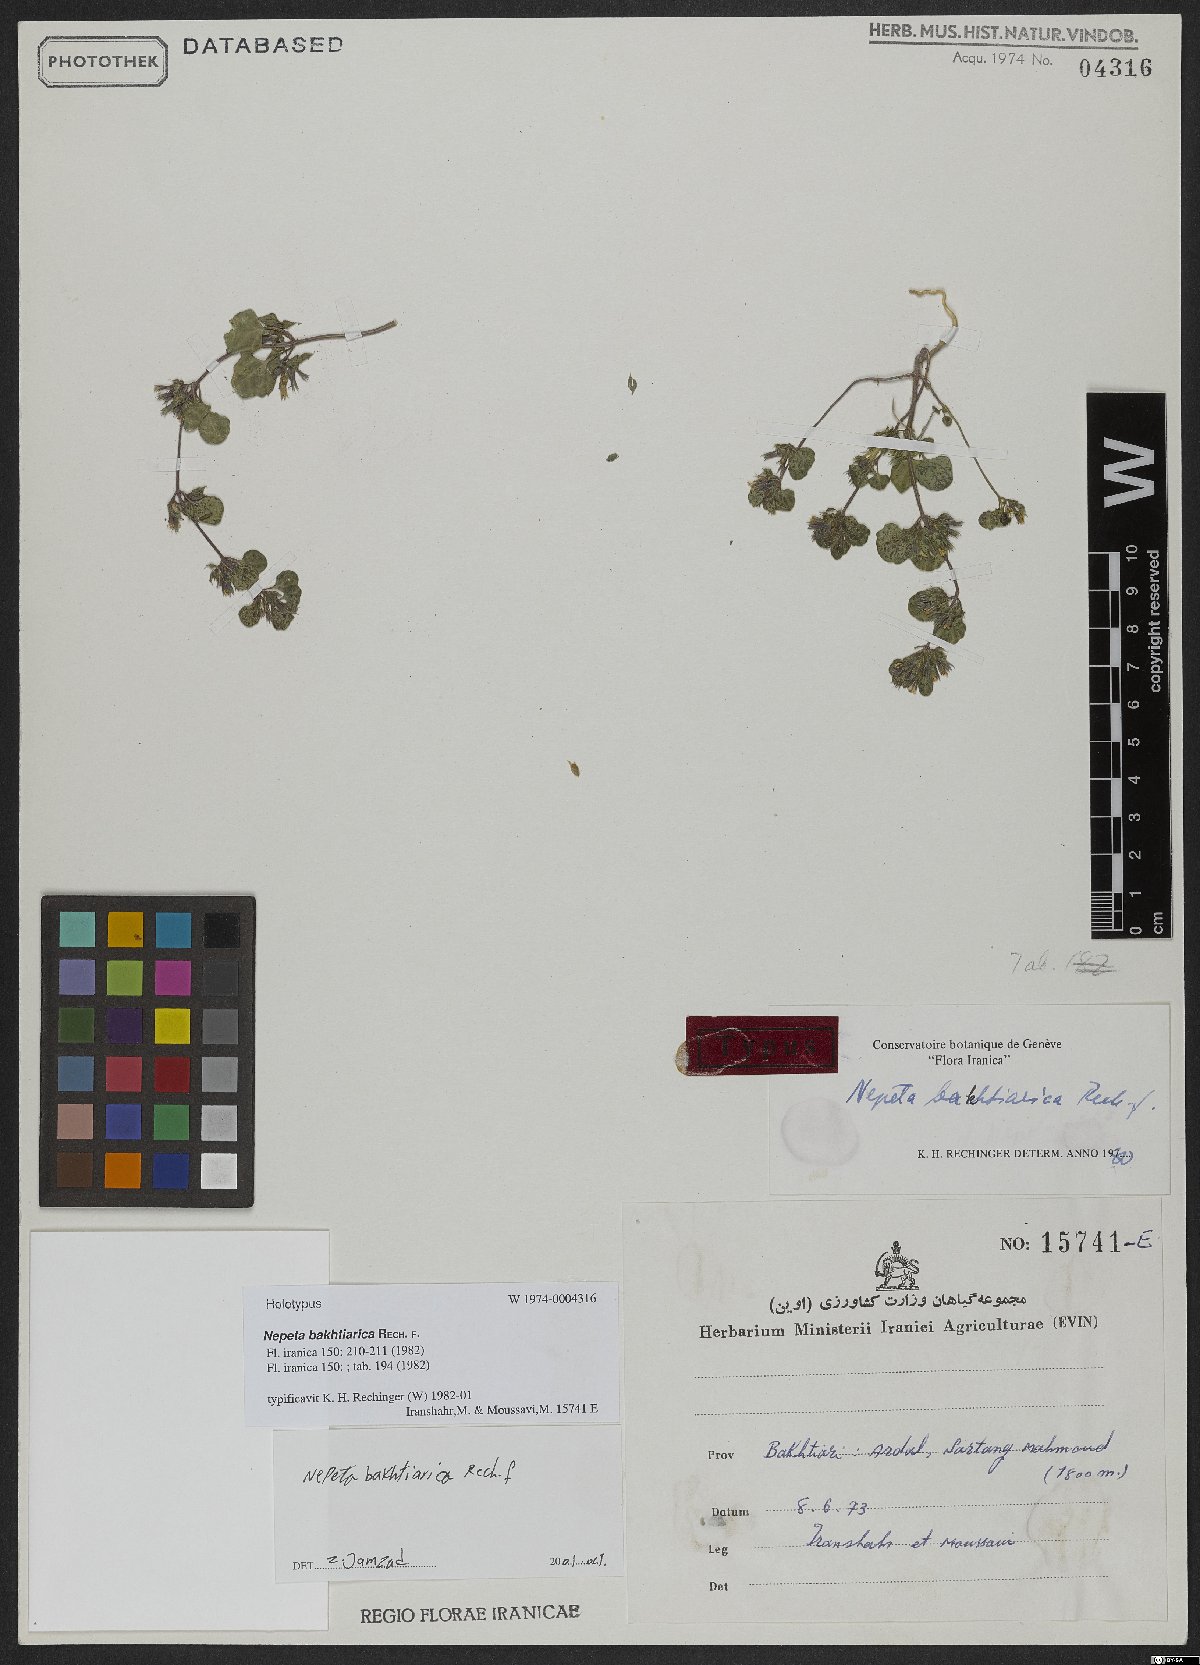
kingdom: Plantae
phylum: Tracheophyta
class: Magnoliopsida
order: Lamiales
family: Lamiaceae
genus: Nepeta
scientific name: Nepeta bakhtiarica
